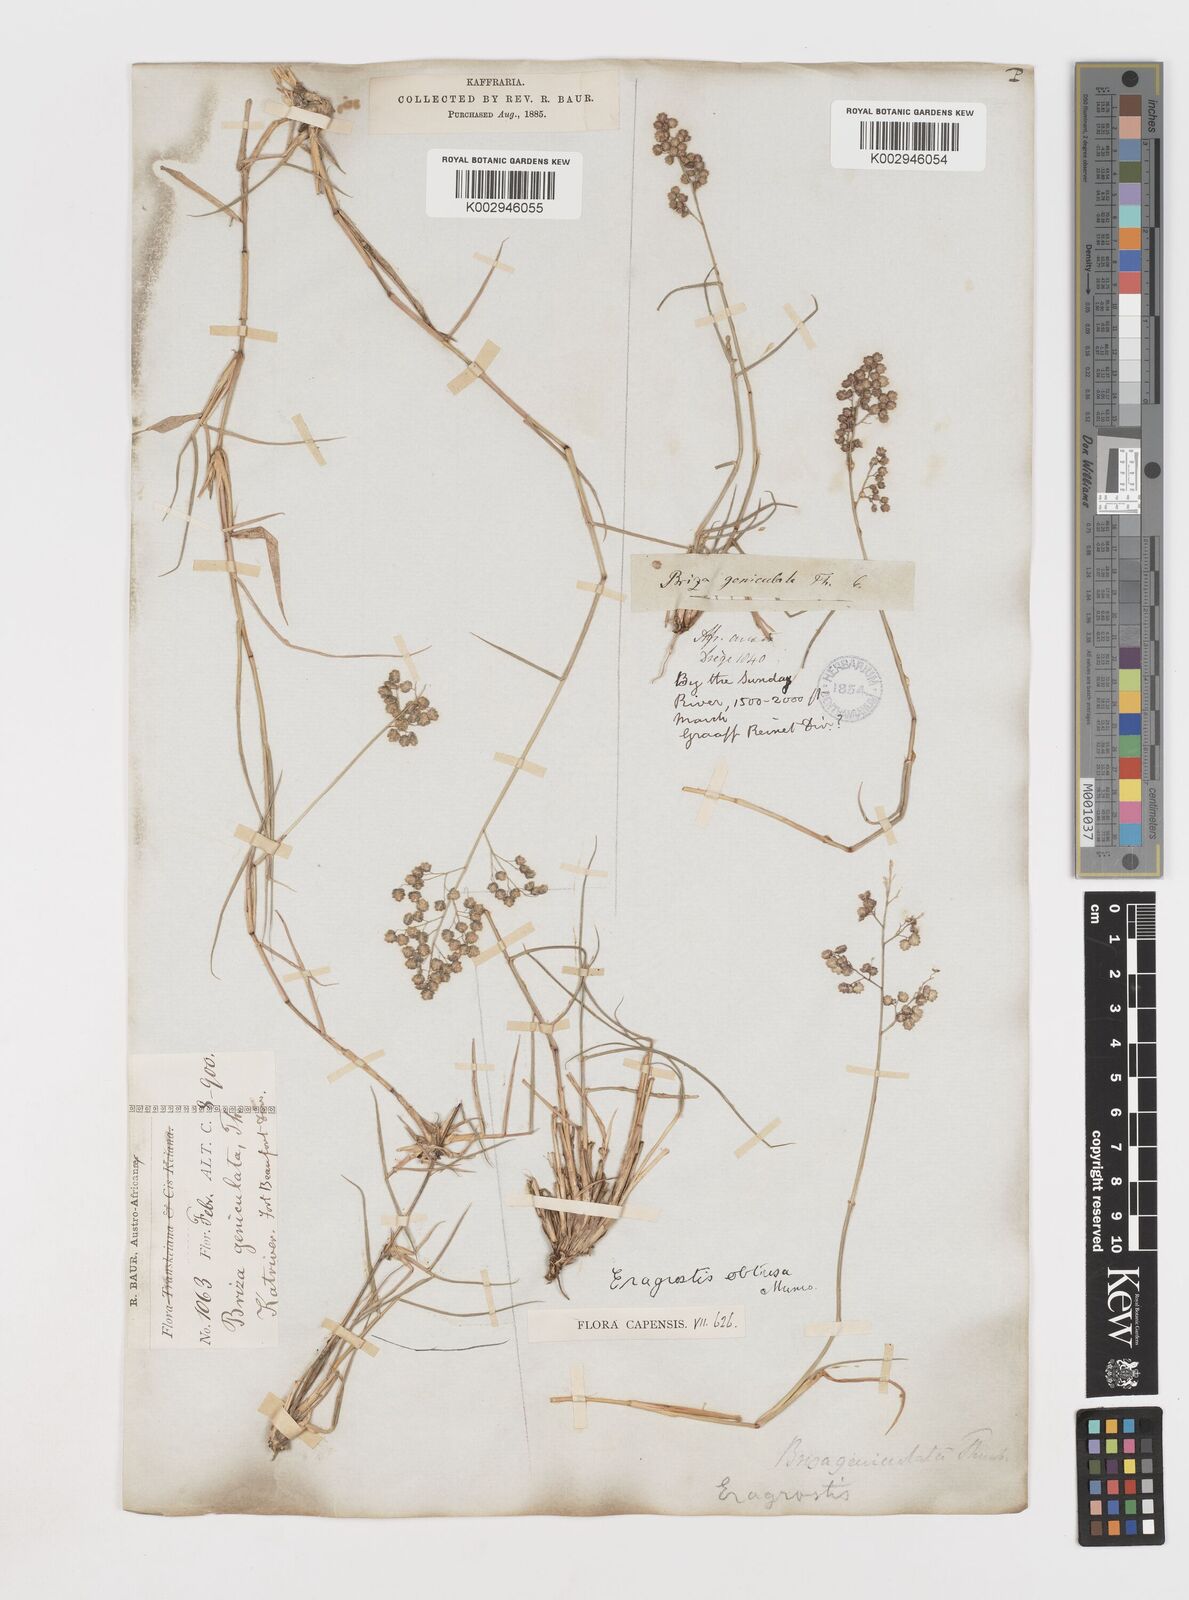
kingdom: Plantae
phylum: Tracheophyta
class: Liliopsida
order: Poales
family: Poaceae
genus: Eragrostis
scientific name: Eragrostis obtusa
